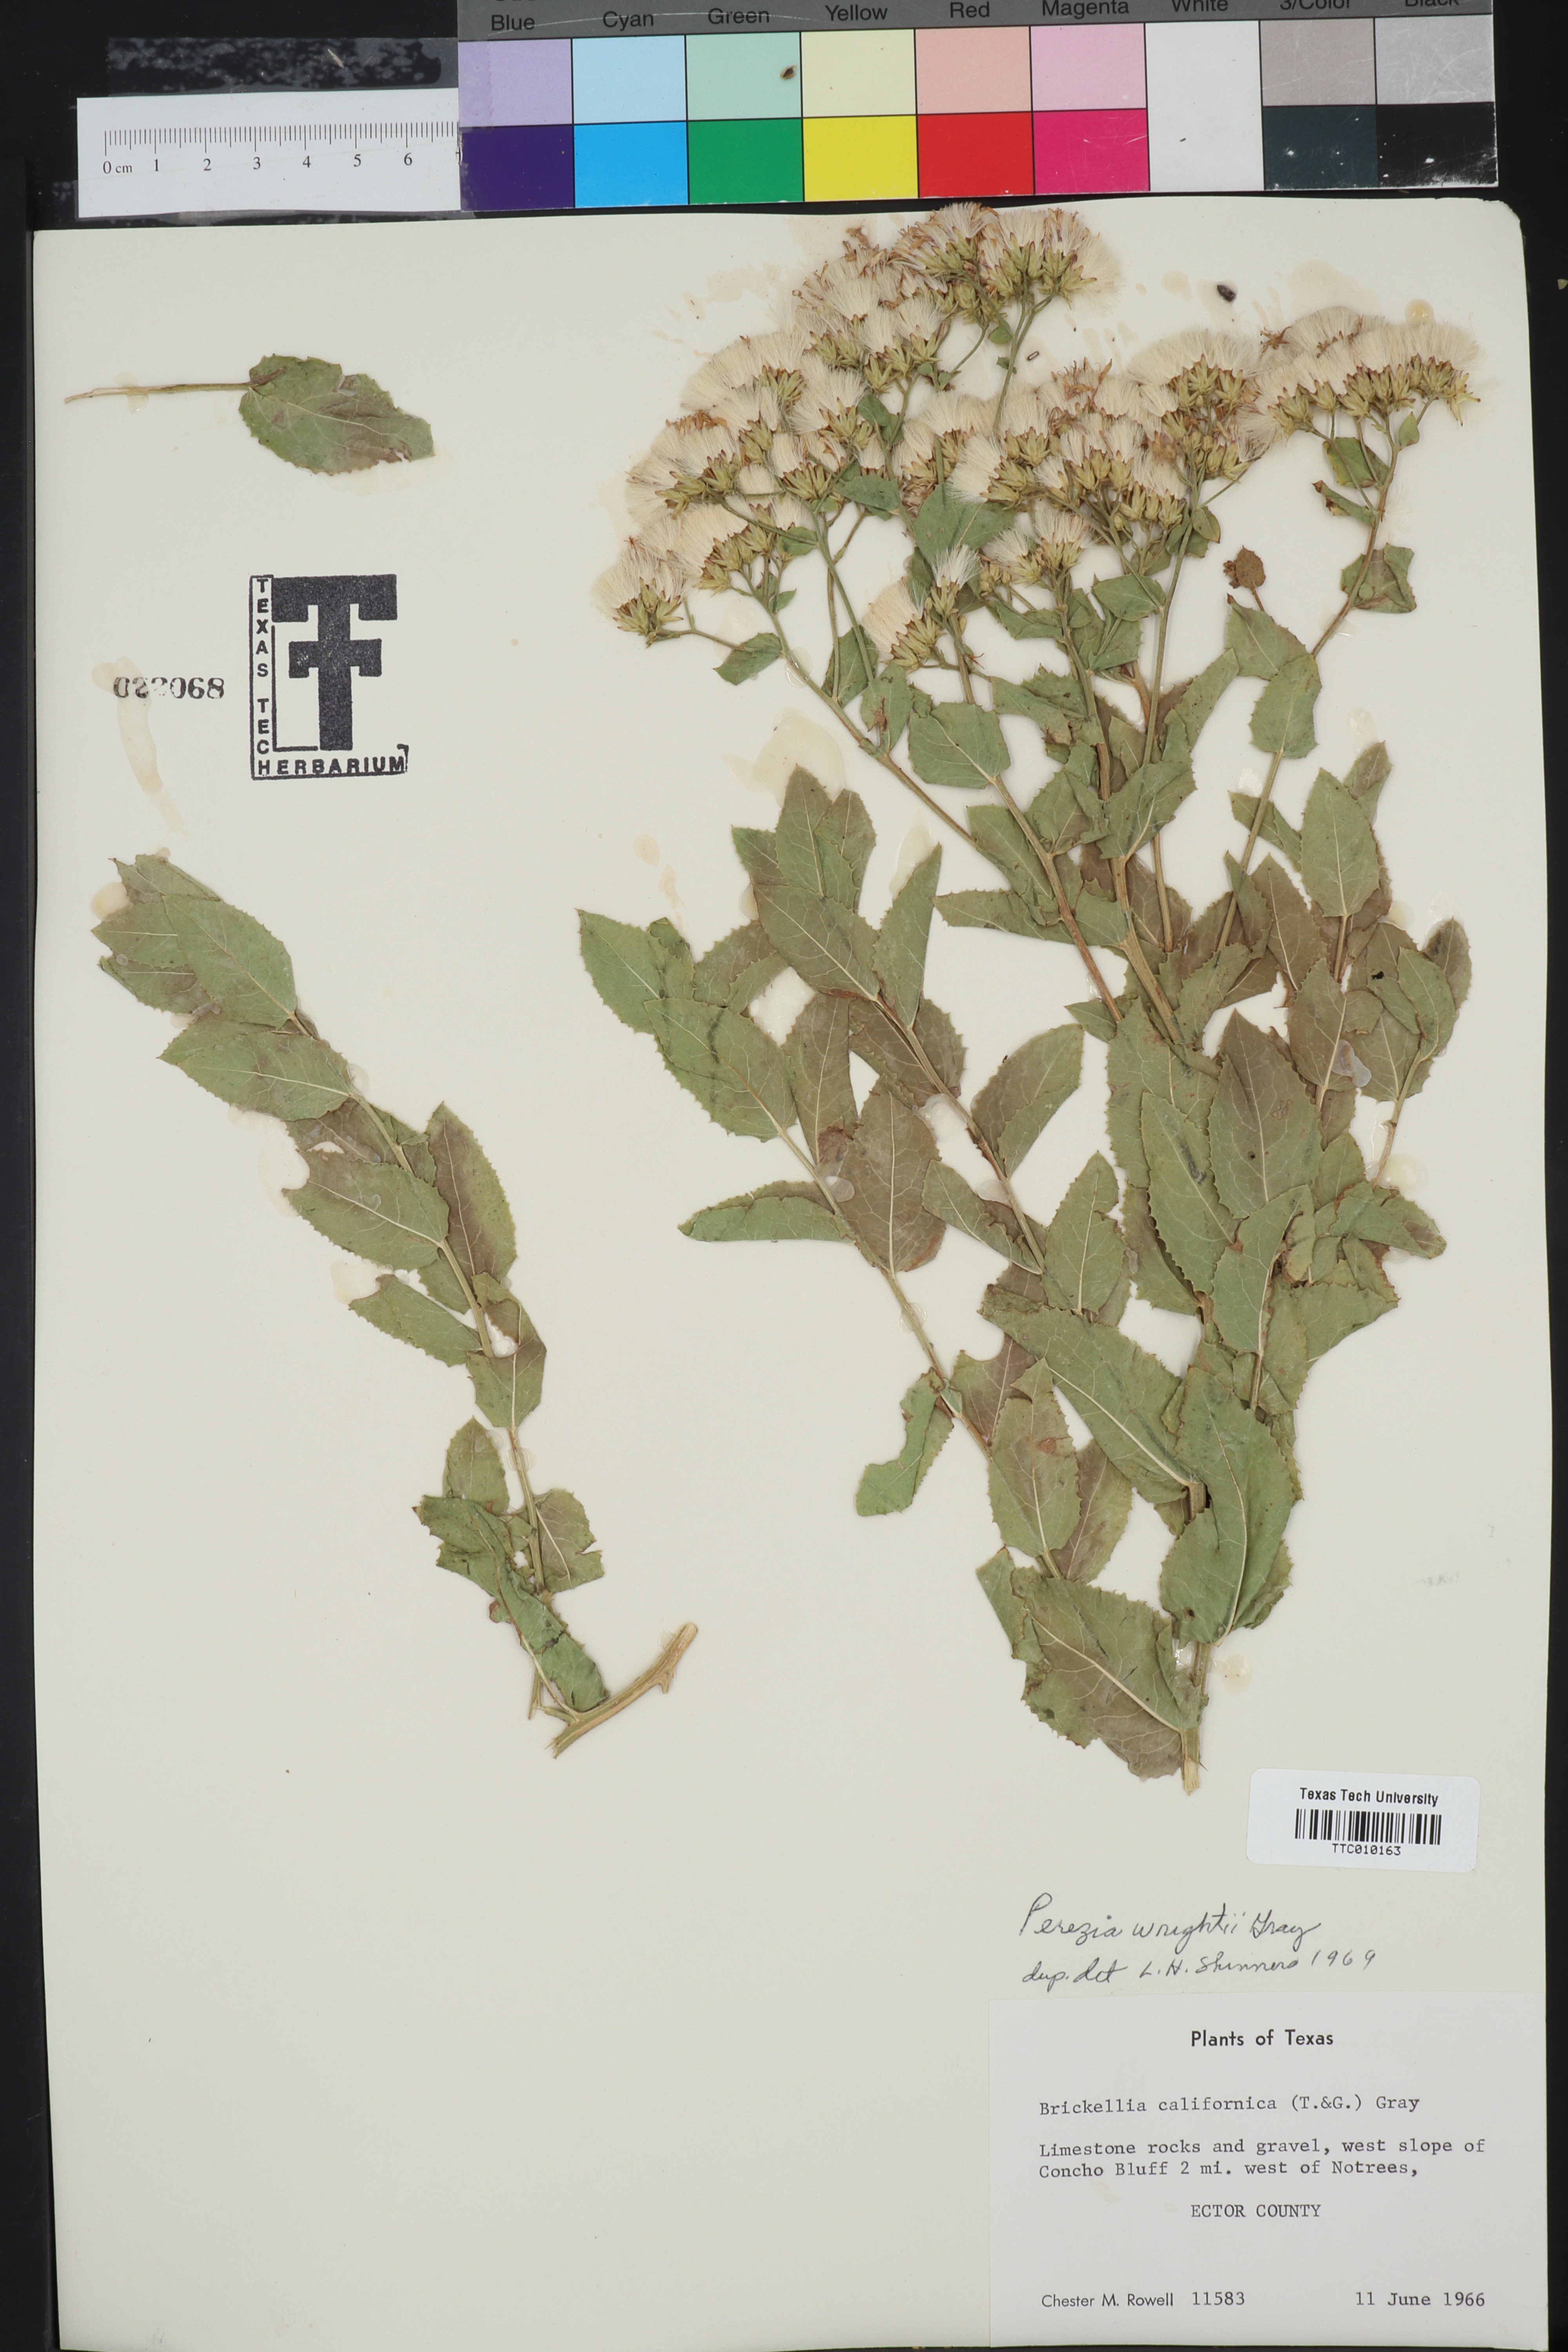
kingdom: Plantae
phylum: Tracheophyta
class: Magnoliopsida
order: Asterales
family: Asteraceae
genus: Acourtia
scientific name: Acourtia wrightii
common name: Brownfoot
